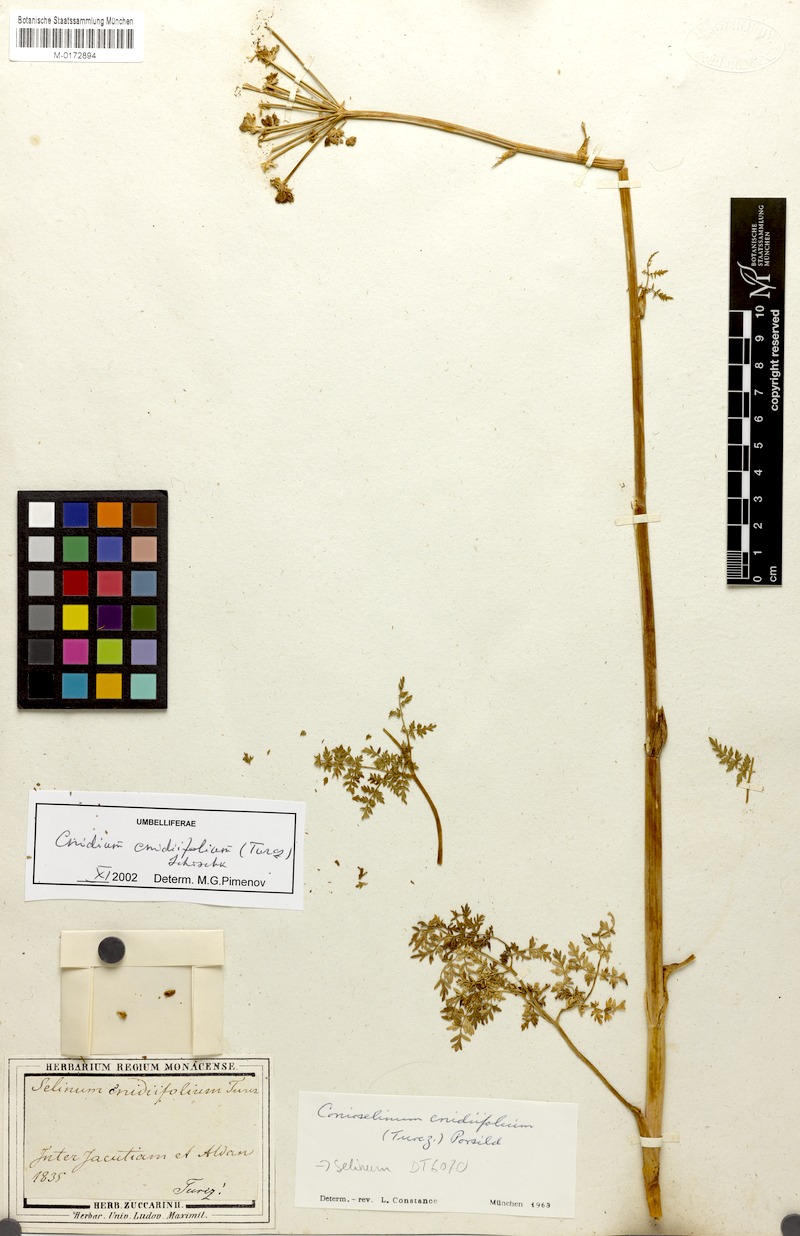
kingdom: Plantae
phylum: Tracheophyta
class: Magnoliopsida
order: Apiales
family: Apiaceae
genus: Cnidium
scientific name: Cnidium cnidiifolium
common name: Northern hemlock-parsley
